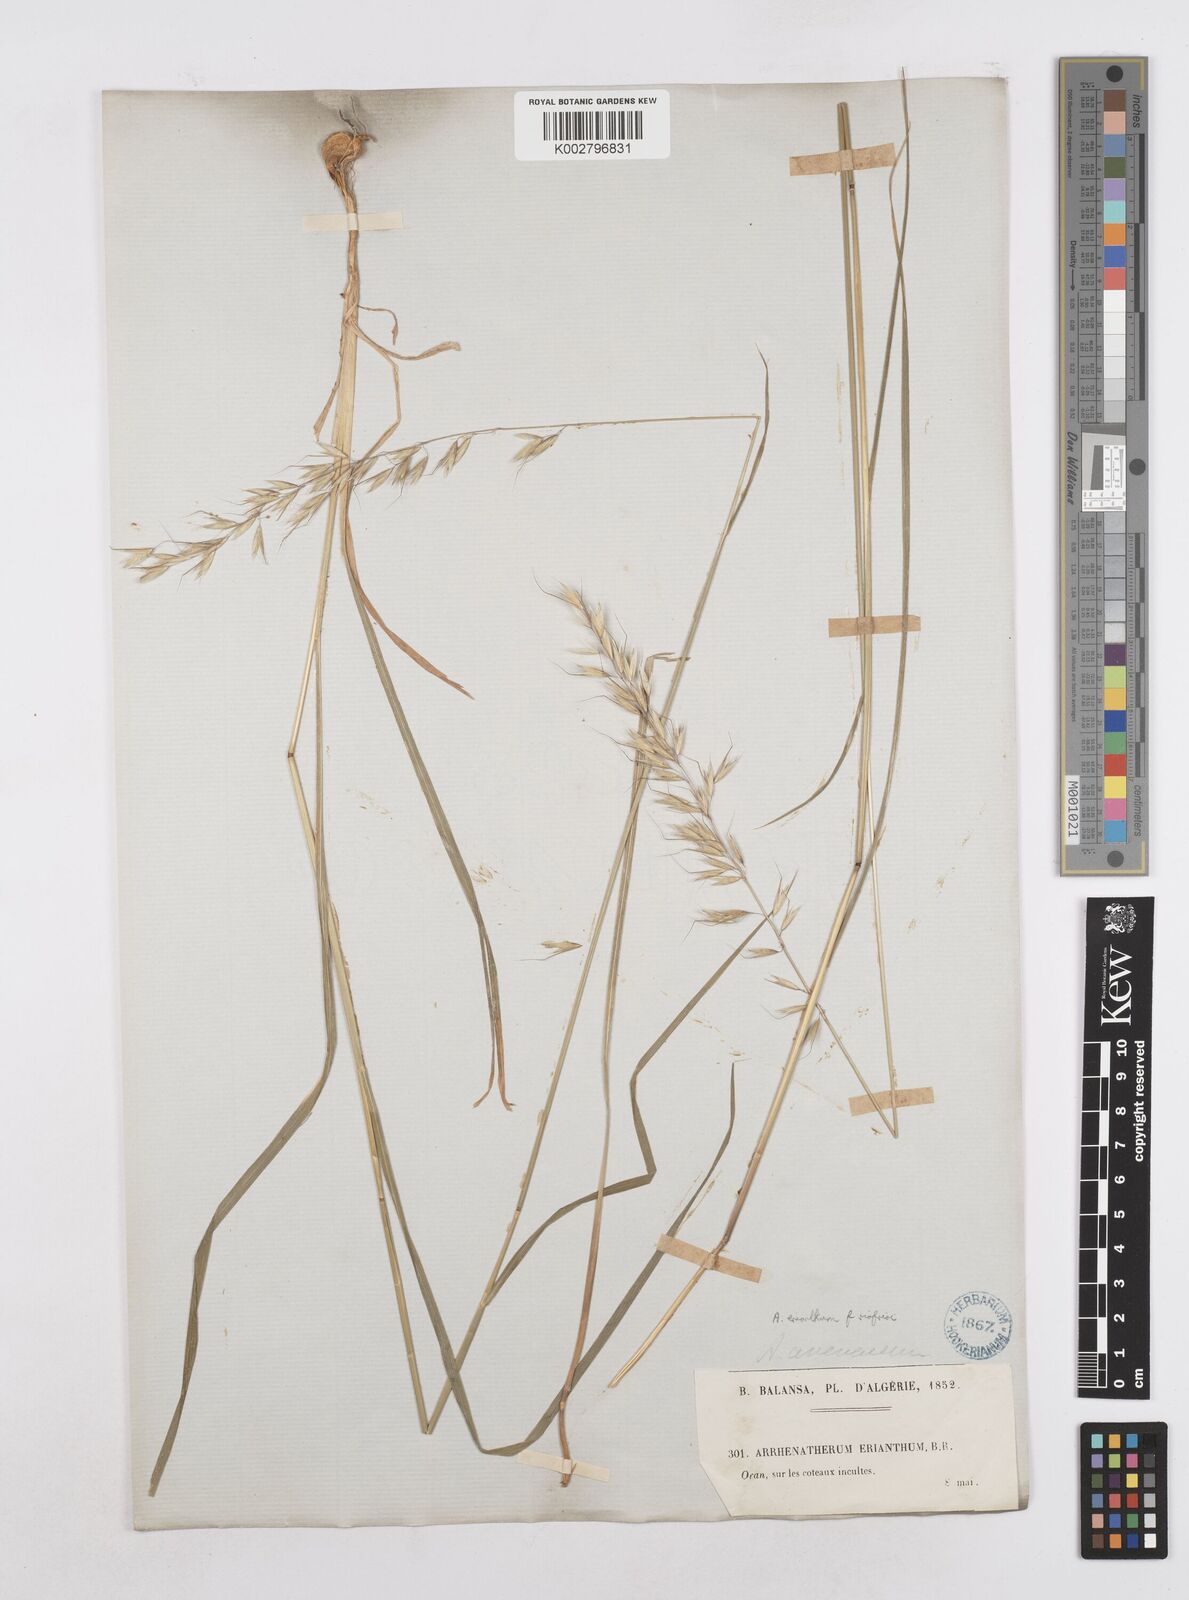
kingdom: Plantae
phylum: Tracheophyta
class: Liliopsida
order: Poales
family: Poaceae
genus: Arrhenatherum
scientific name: Arrhenatherum
